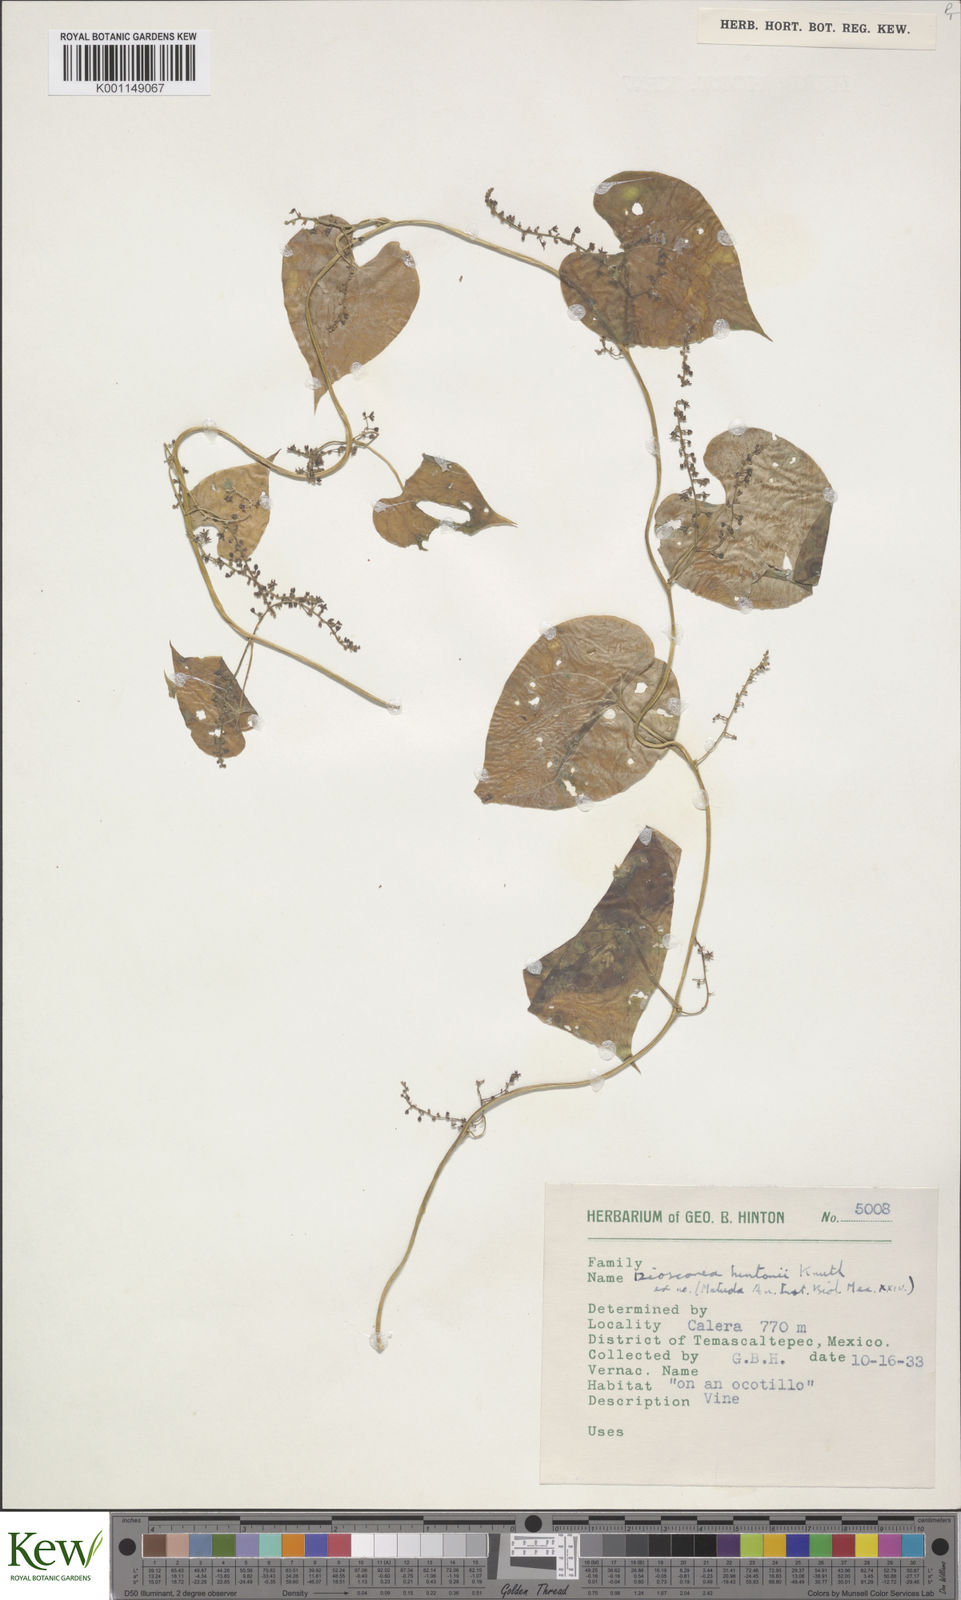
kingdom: Plantae
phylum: Tracheophyta
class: Liliopsida
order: Dioscoreales
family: Dioscoreaceae
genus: Dioscorea
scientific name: Dioscorea hintonii
